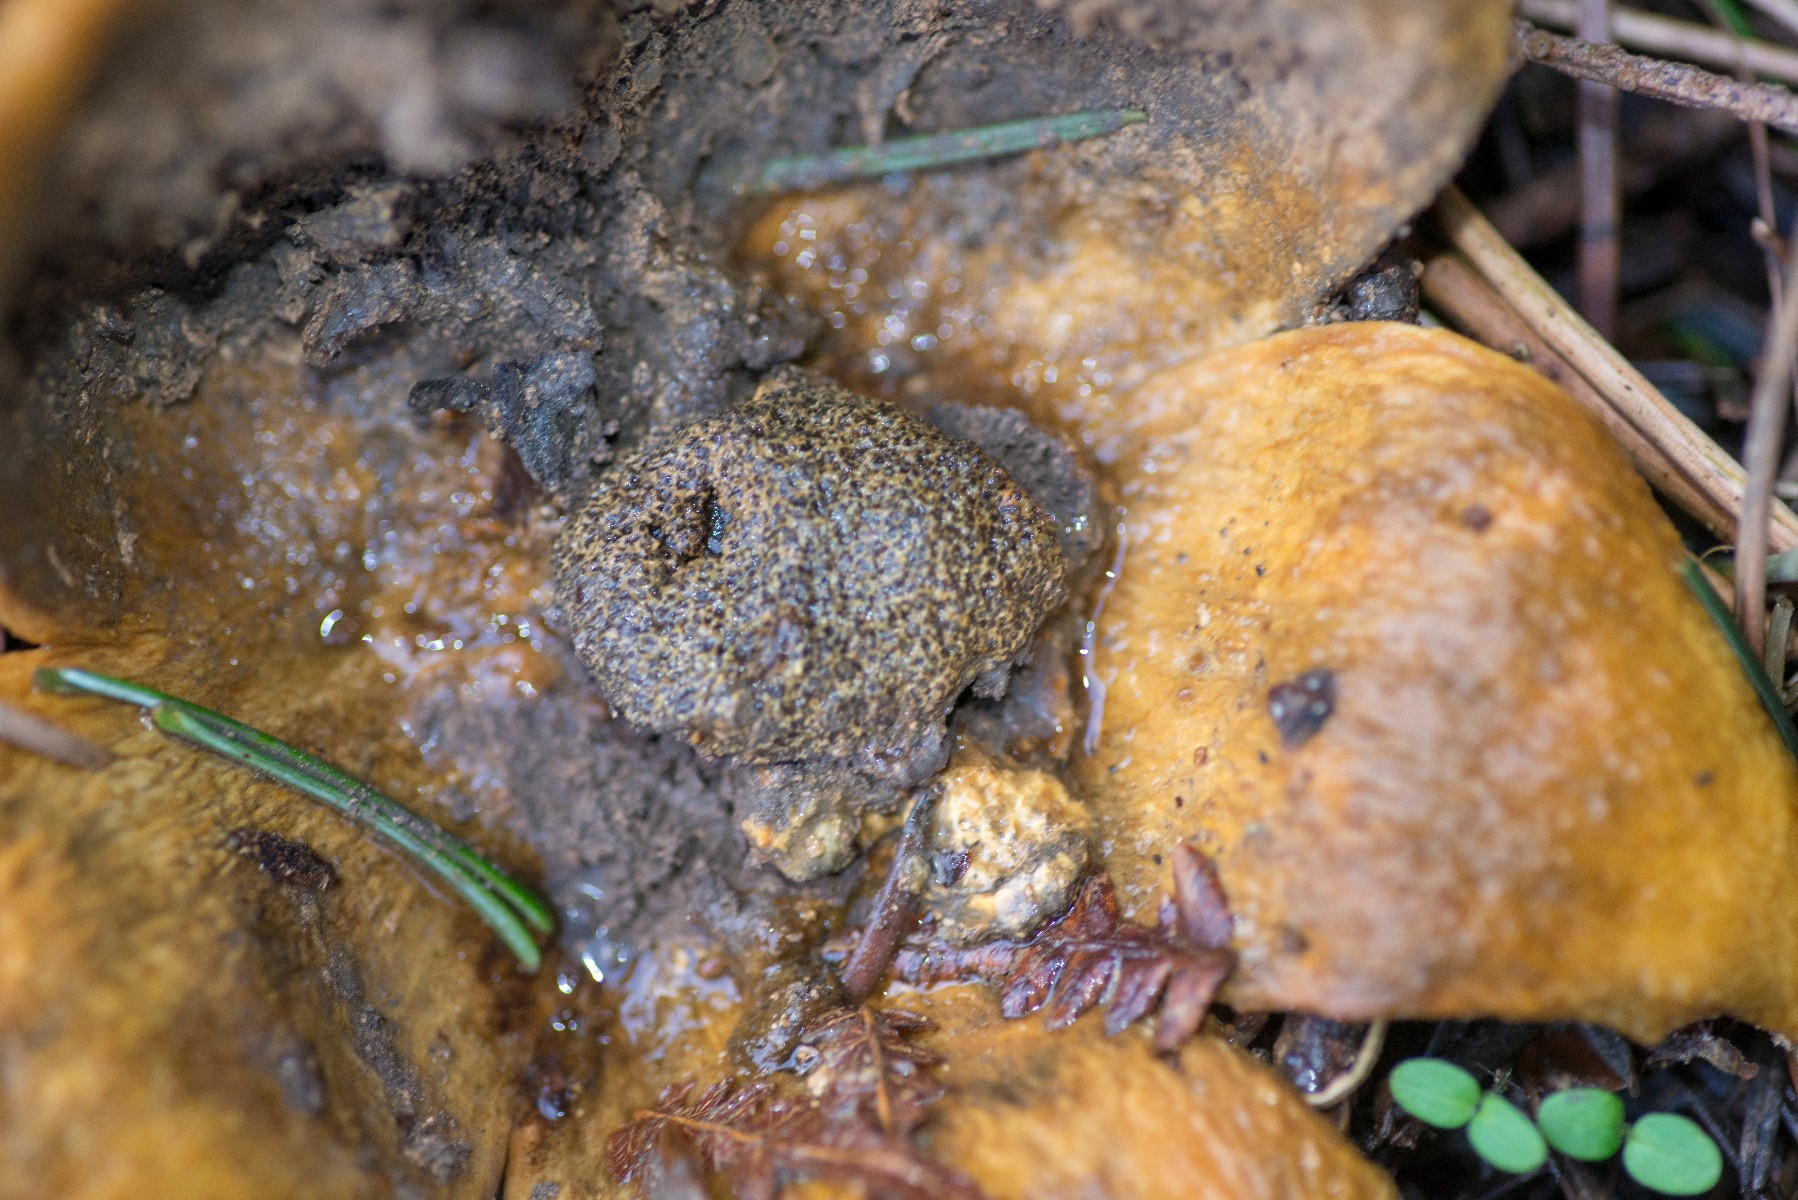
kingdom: Fungi
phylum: Basidiomycota
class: Agaricomycetes
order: Boletales
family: Sclerodermataceae
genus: Scleroderma
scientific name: Scleroderma citrinum
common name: almindelig bruskbold
